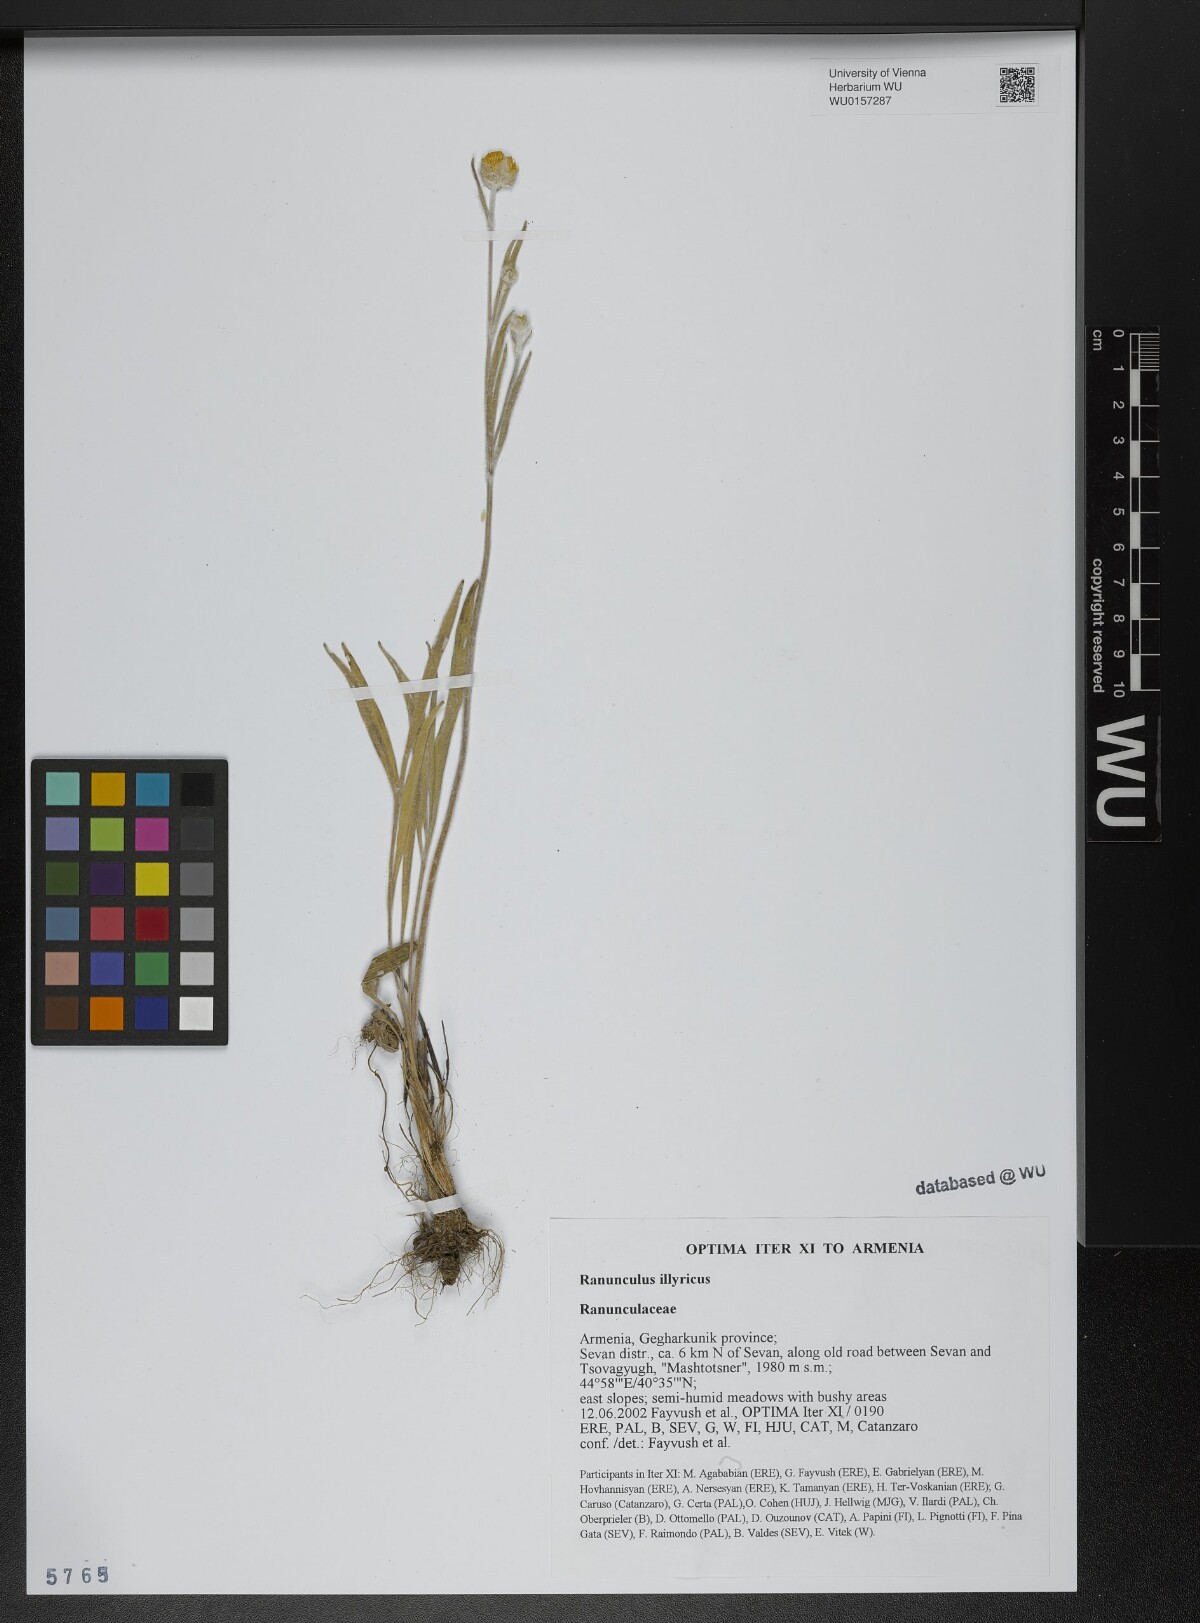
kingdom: Plantae
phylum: Tracheophyta
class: Magnoliopsida
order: Ranunculales
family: Ranunculaceae
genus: Ranunculus
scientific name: Ranunculus illyricus
